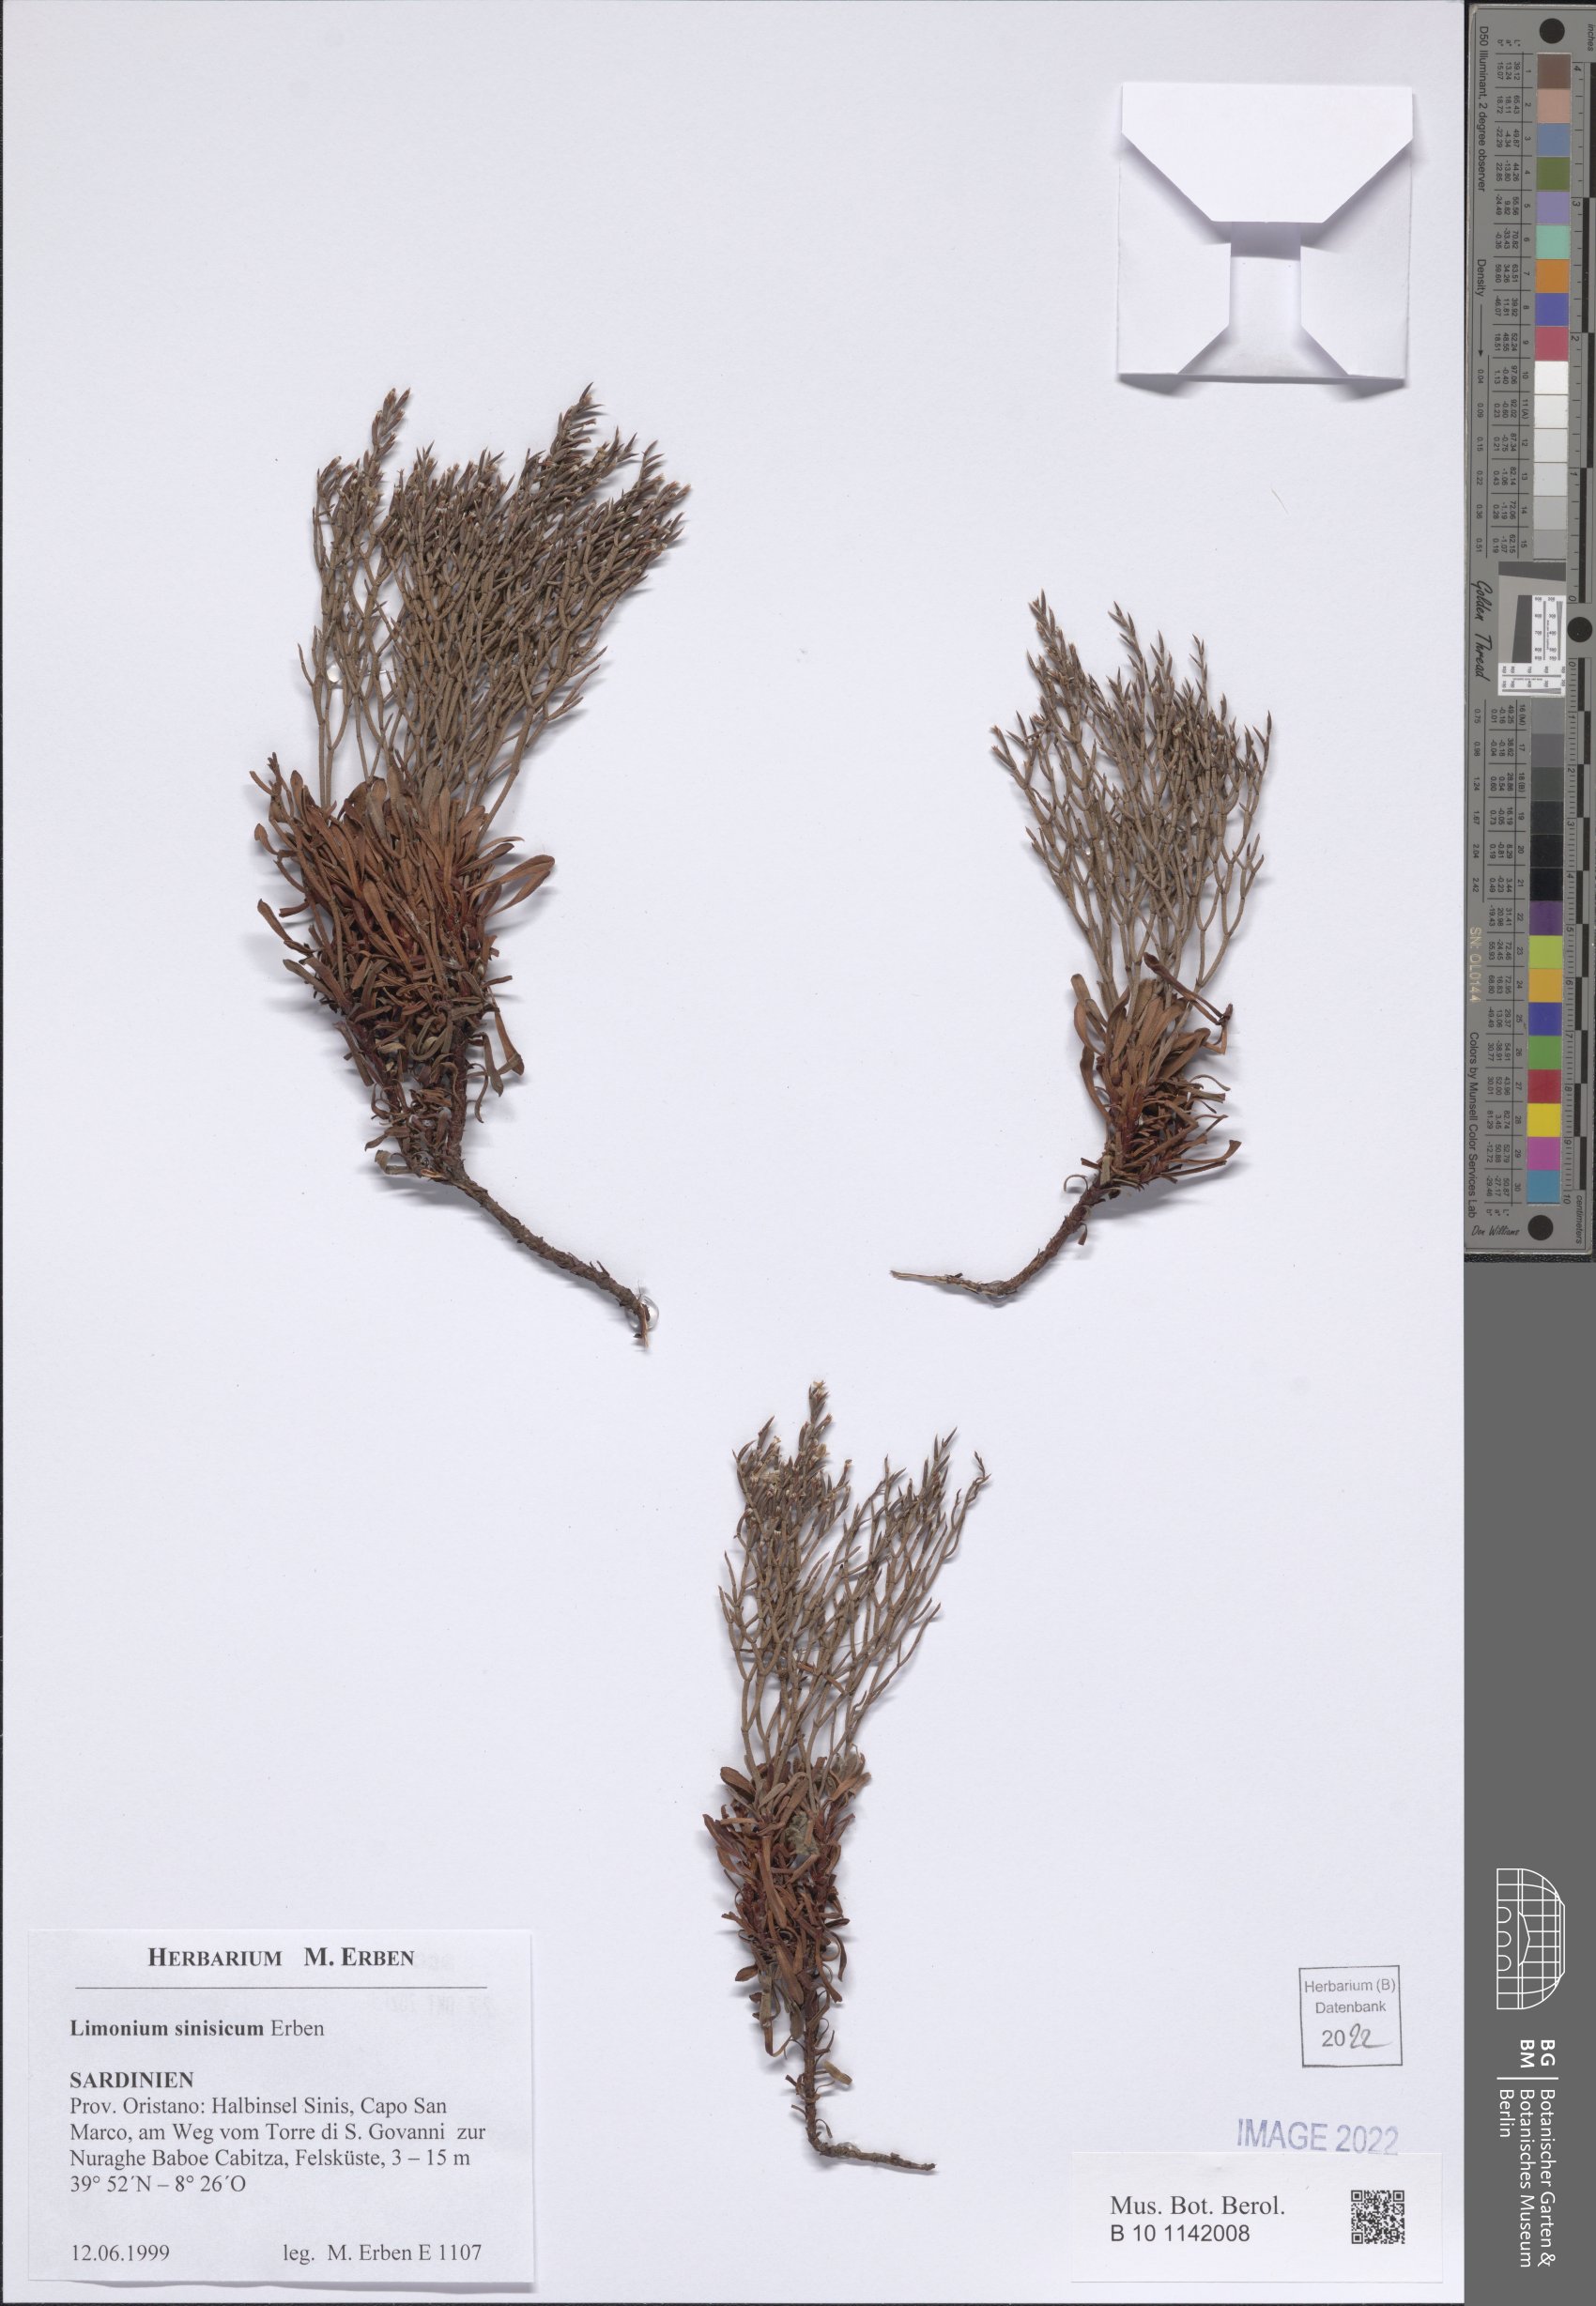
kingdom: Plantae
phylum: Tracheophyta
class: Magnoliopsida
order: Caryophyllales
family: Plumbaginaceae
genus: Limonium
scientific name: Limonium acutifolium
